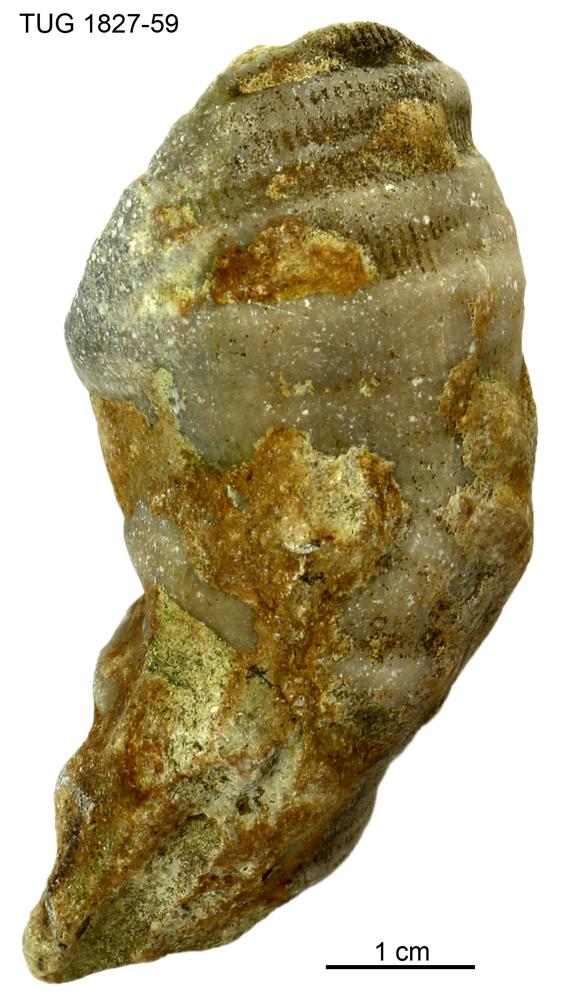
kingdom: Animalia
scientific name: Animalia
